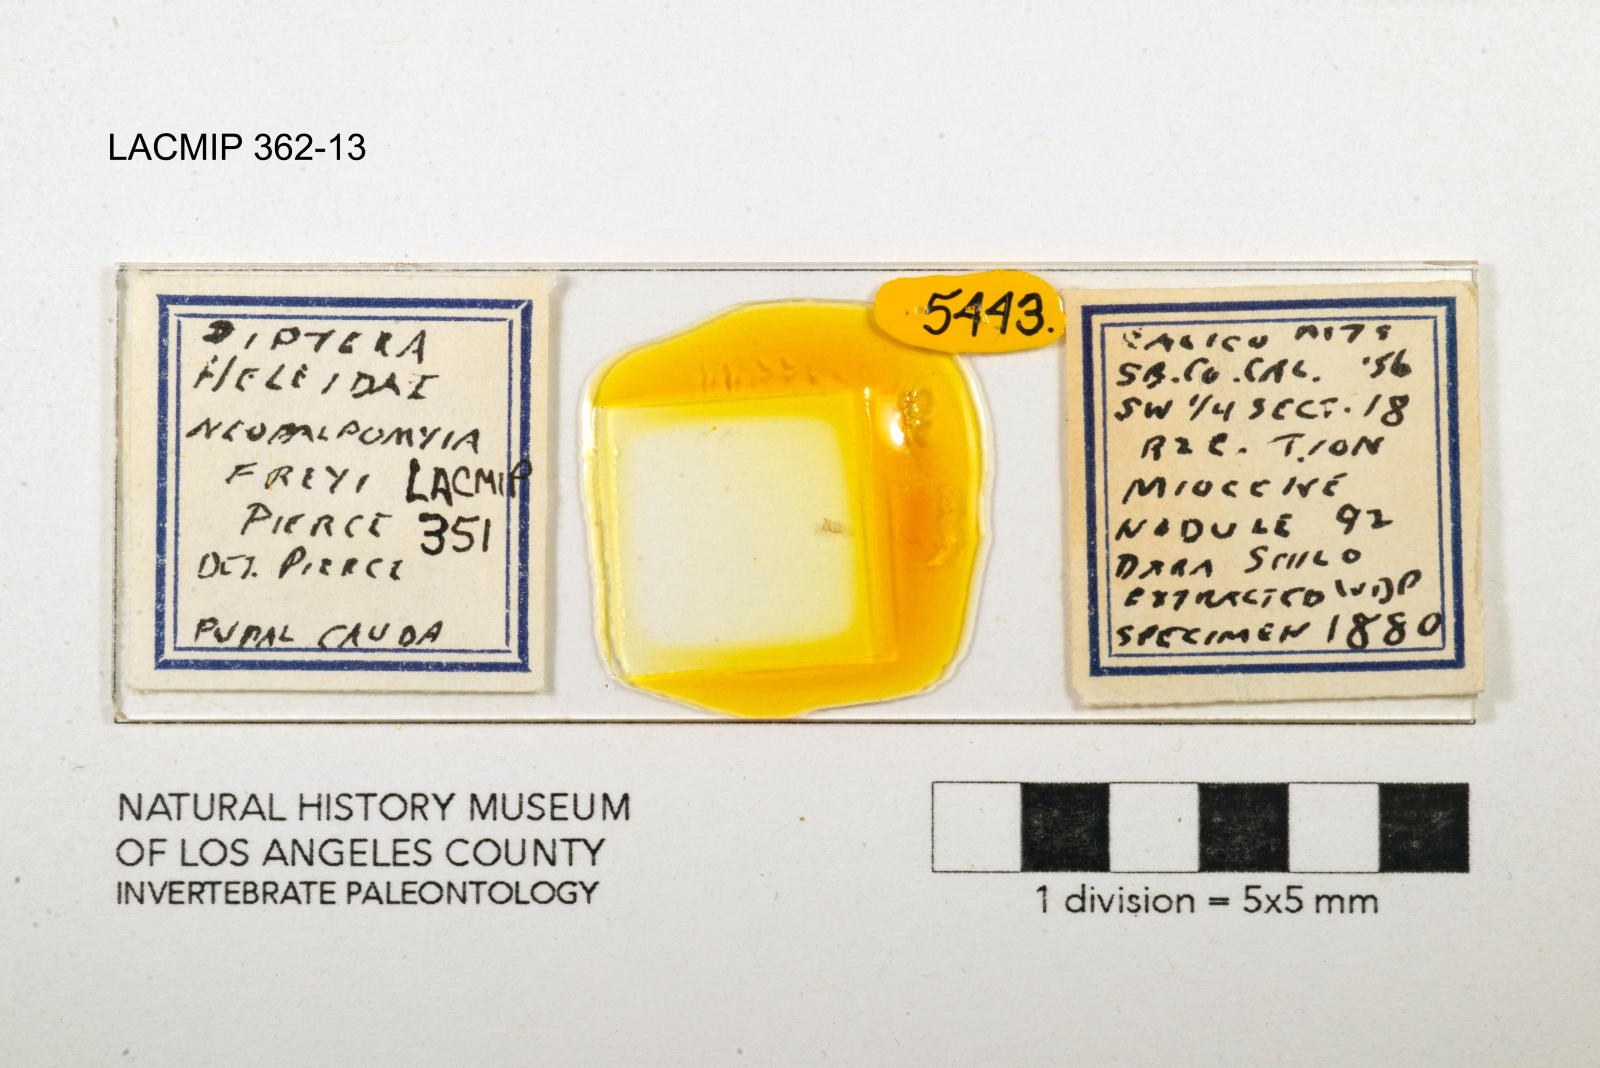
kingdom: Animalia
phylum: Arthropoda
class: Insecta
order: Diptera
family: Ceratopogonidae
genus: Palpomyia
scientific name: Palpomyia freyi
